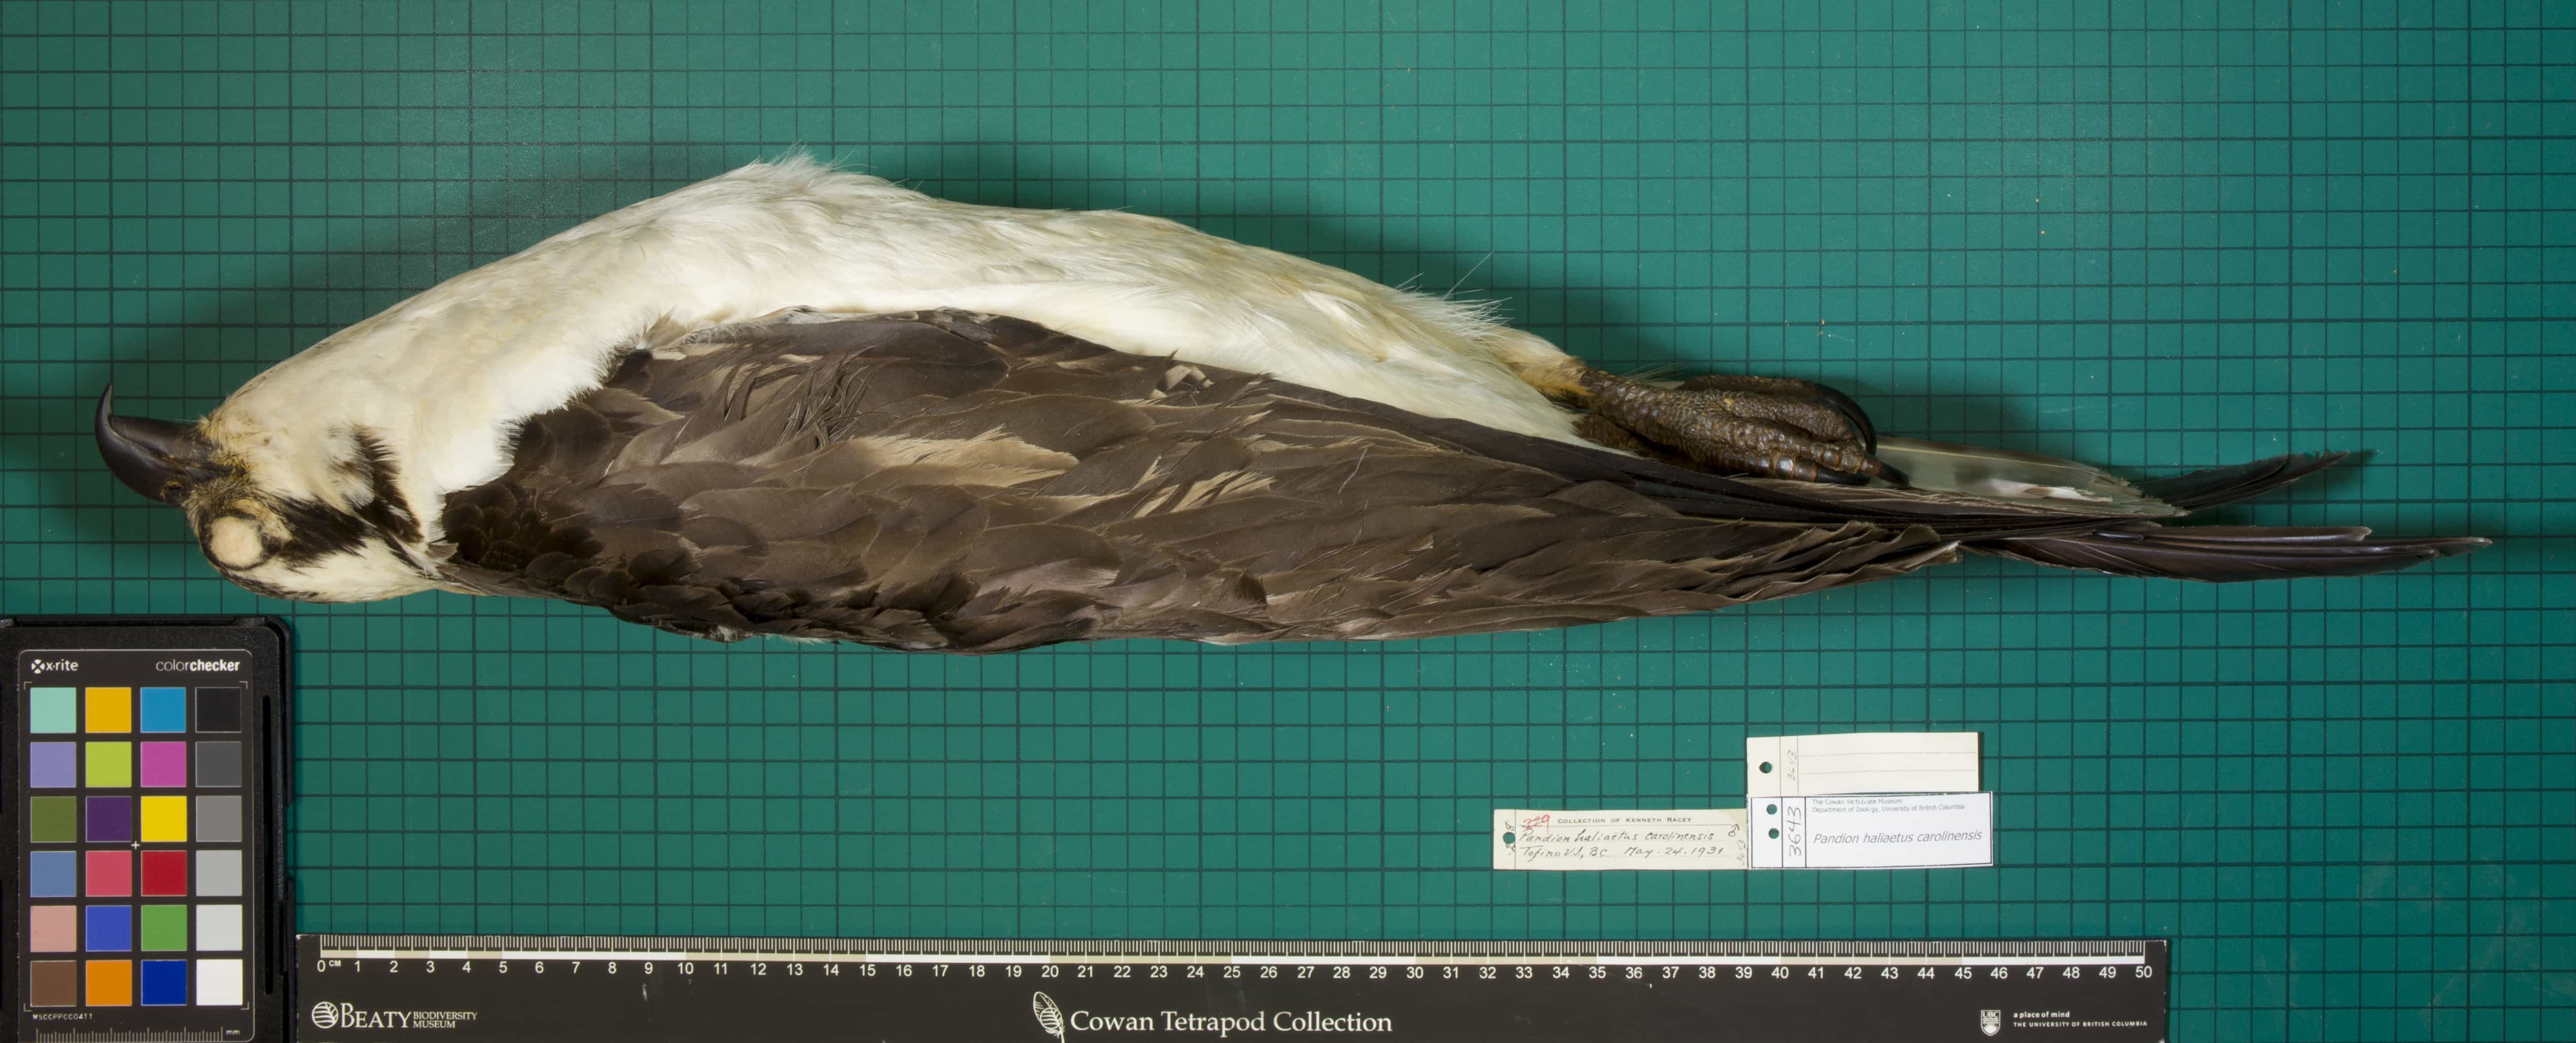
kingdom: Animalia
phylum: Chordata
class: Aves
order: Accipitriformes
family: Pandionidae
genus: Pandion
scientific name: Pandion haliaetus
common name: Osprey
